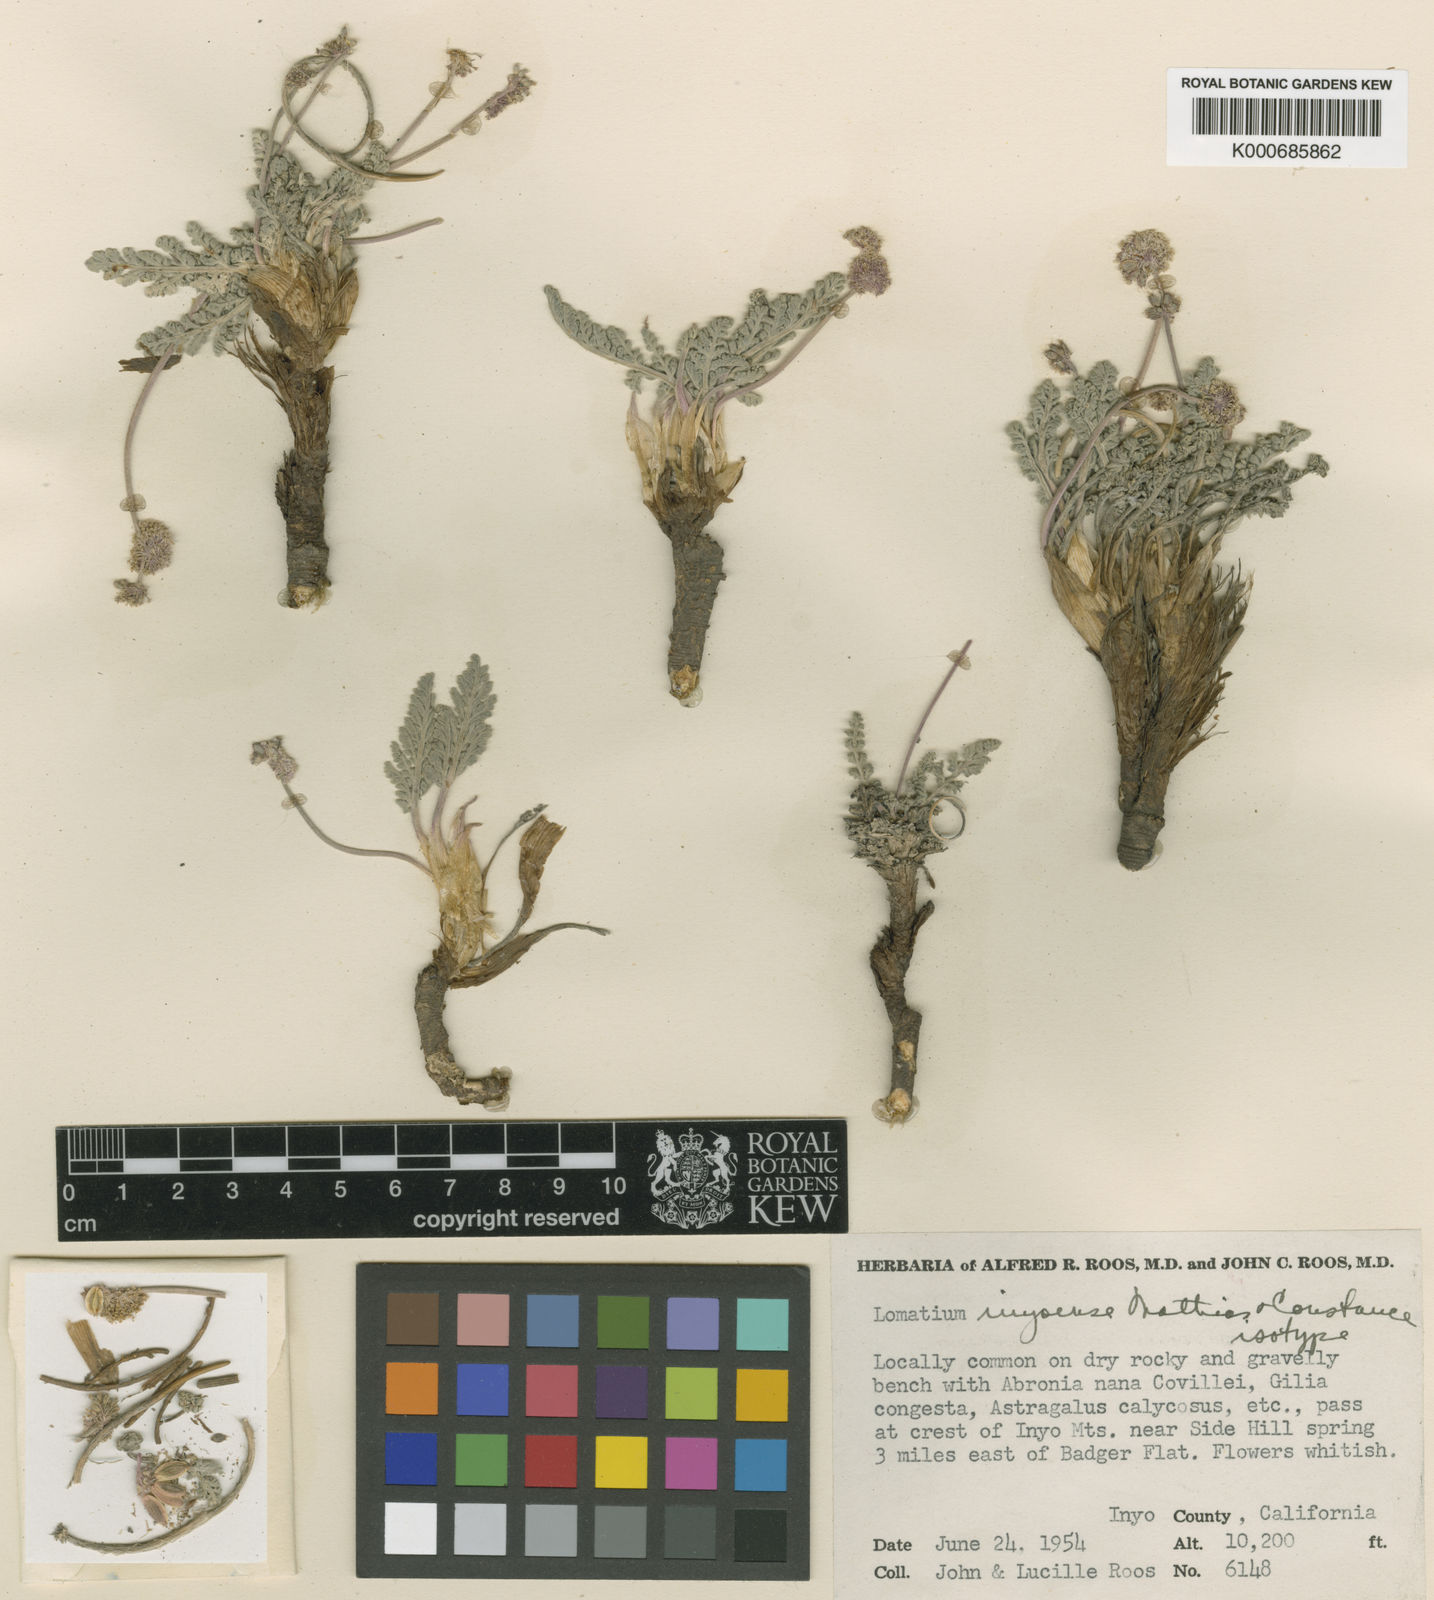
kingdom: Plantae
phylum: Tracheophyta
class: Magnoliopsida
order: Apiales
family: Apiaceae
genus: Lomatium
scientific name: Lomatium foeniculaceum
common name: Desert-parsley
